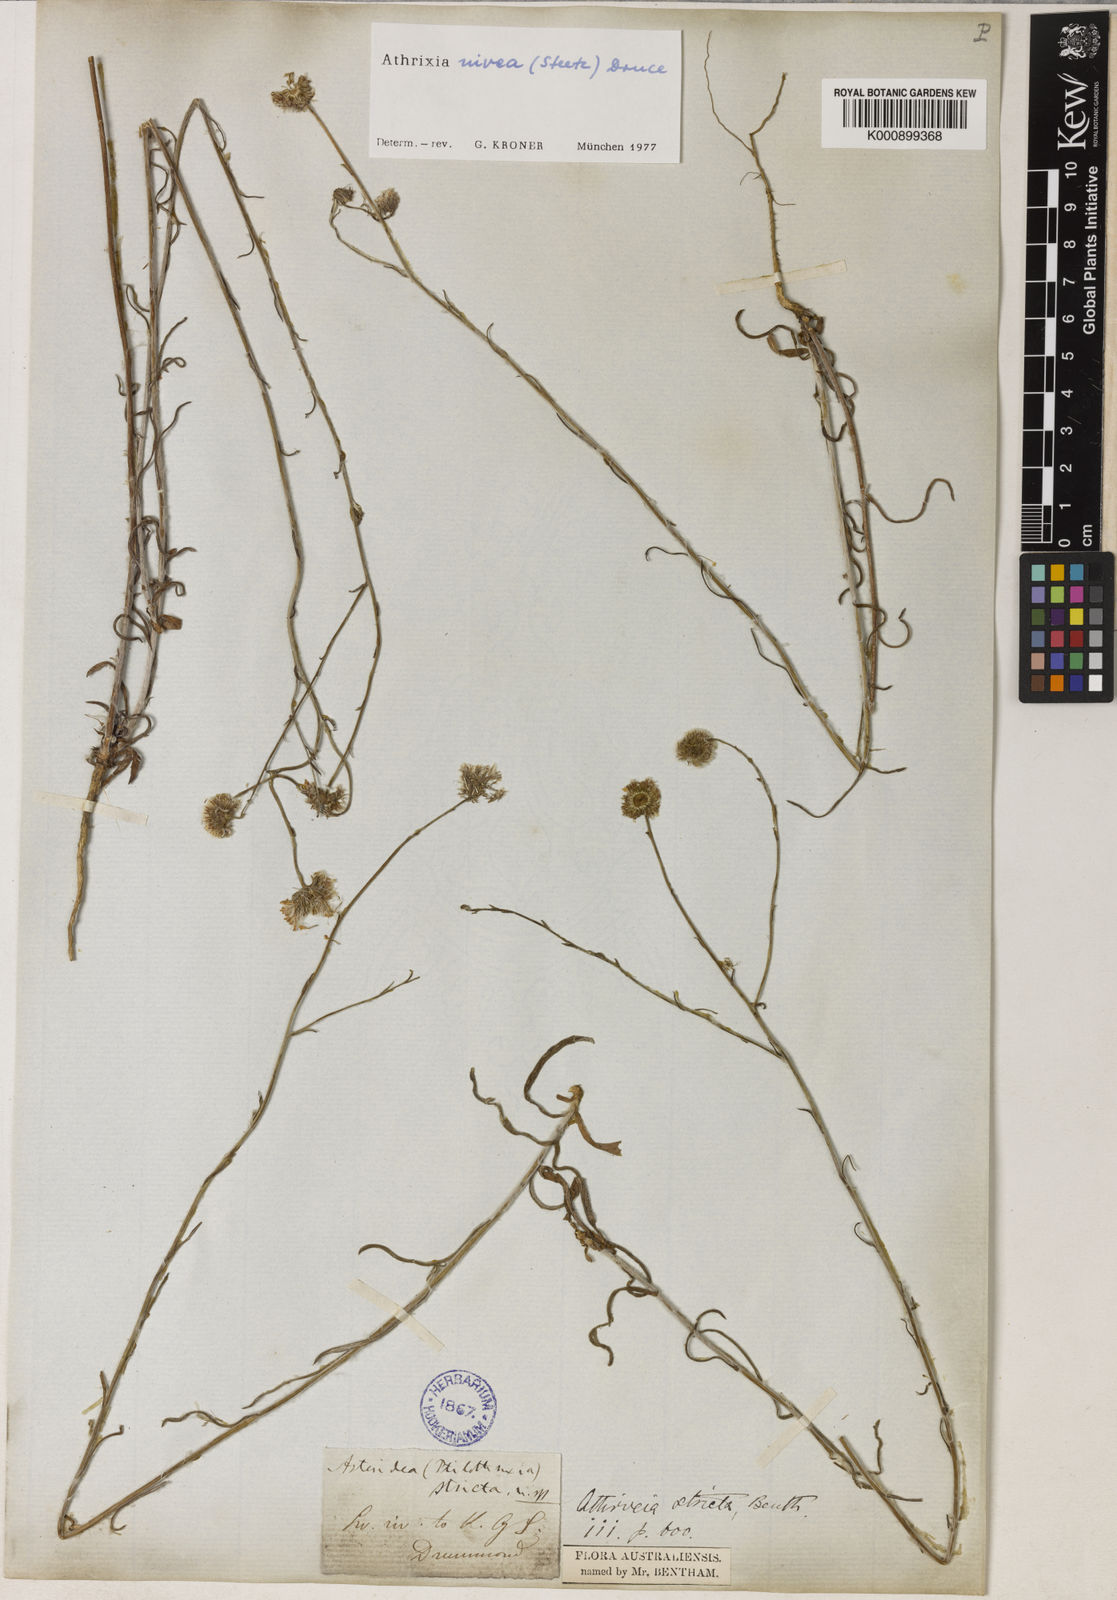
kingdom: Plantae
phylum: Tracheophyta
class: Magnoliopsida
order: Asterales
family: Asteraceae
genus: Asteridea
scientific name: Asteridea nivea
